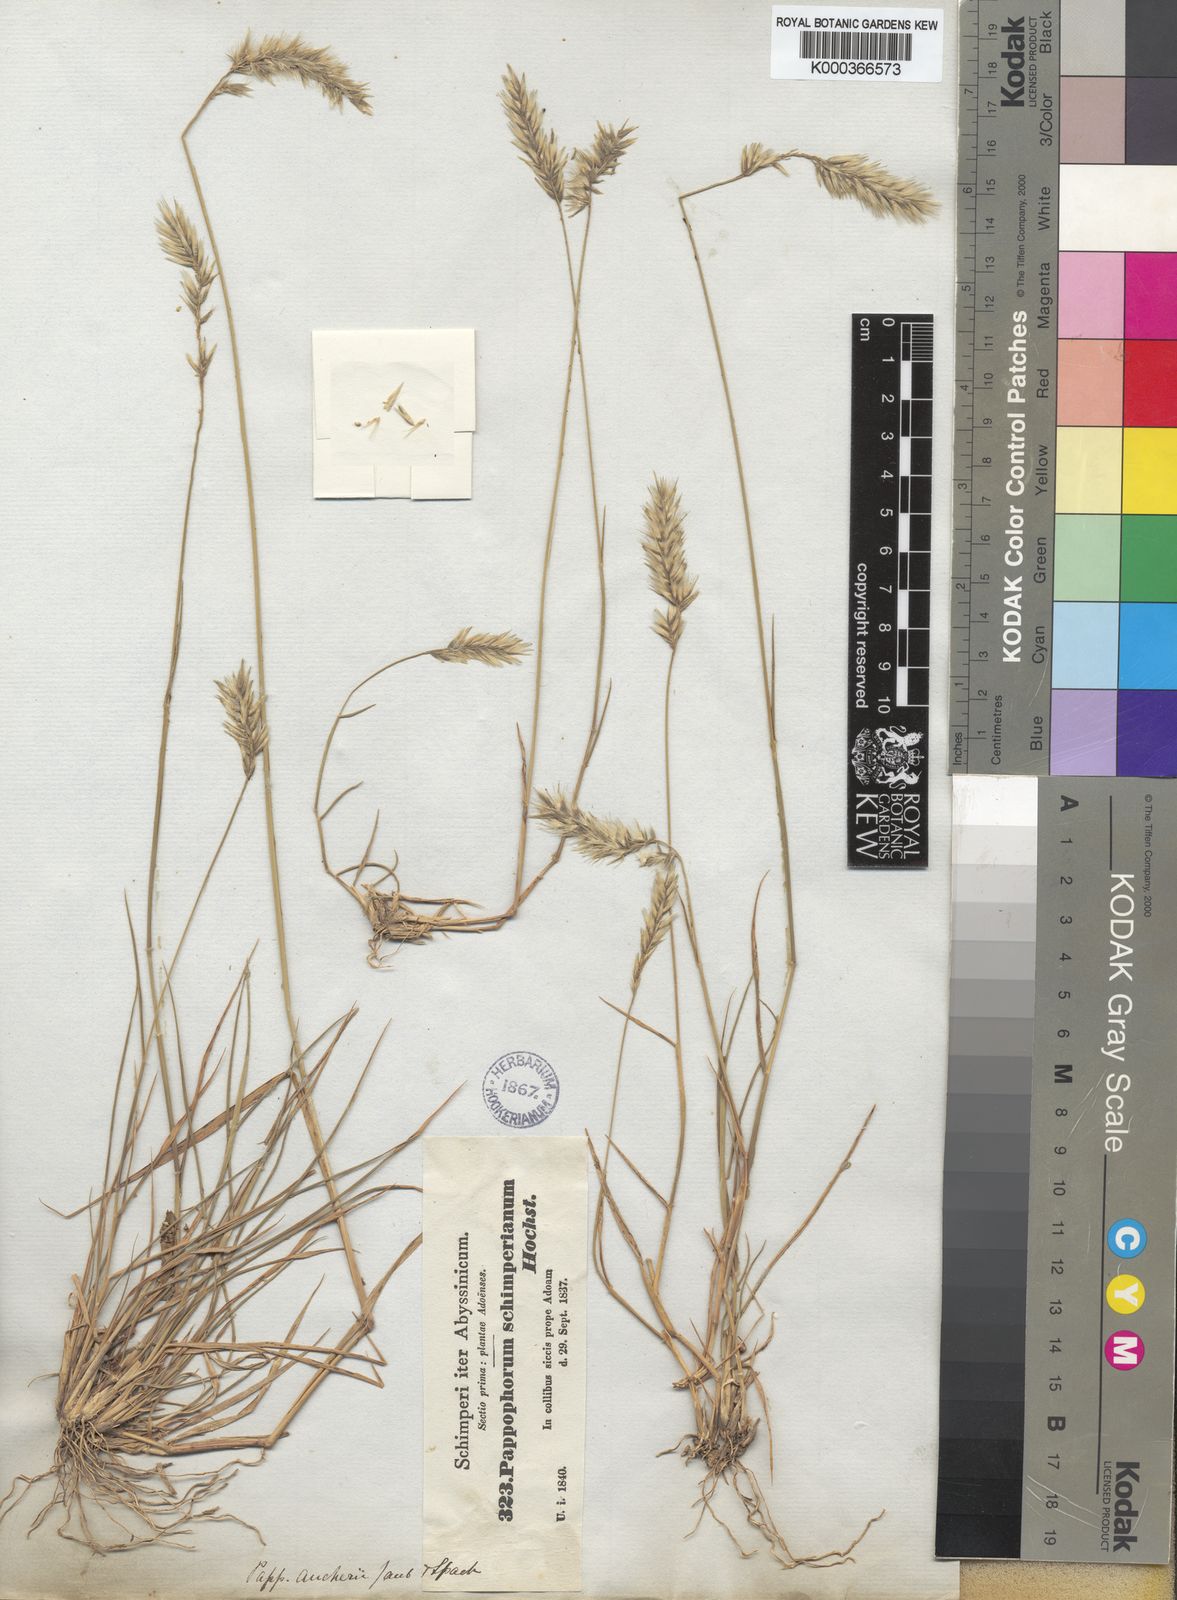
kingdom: Plantae
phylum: Tracheophyta
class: Liliopsida
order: Poales
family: Poaceae
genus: Enneapogon
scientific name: Enneapogon persicus
